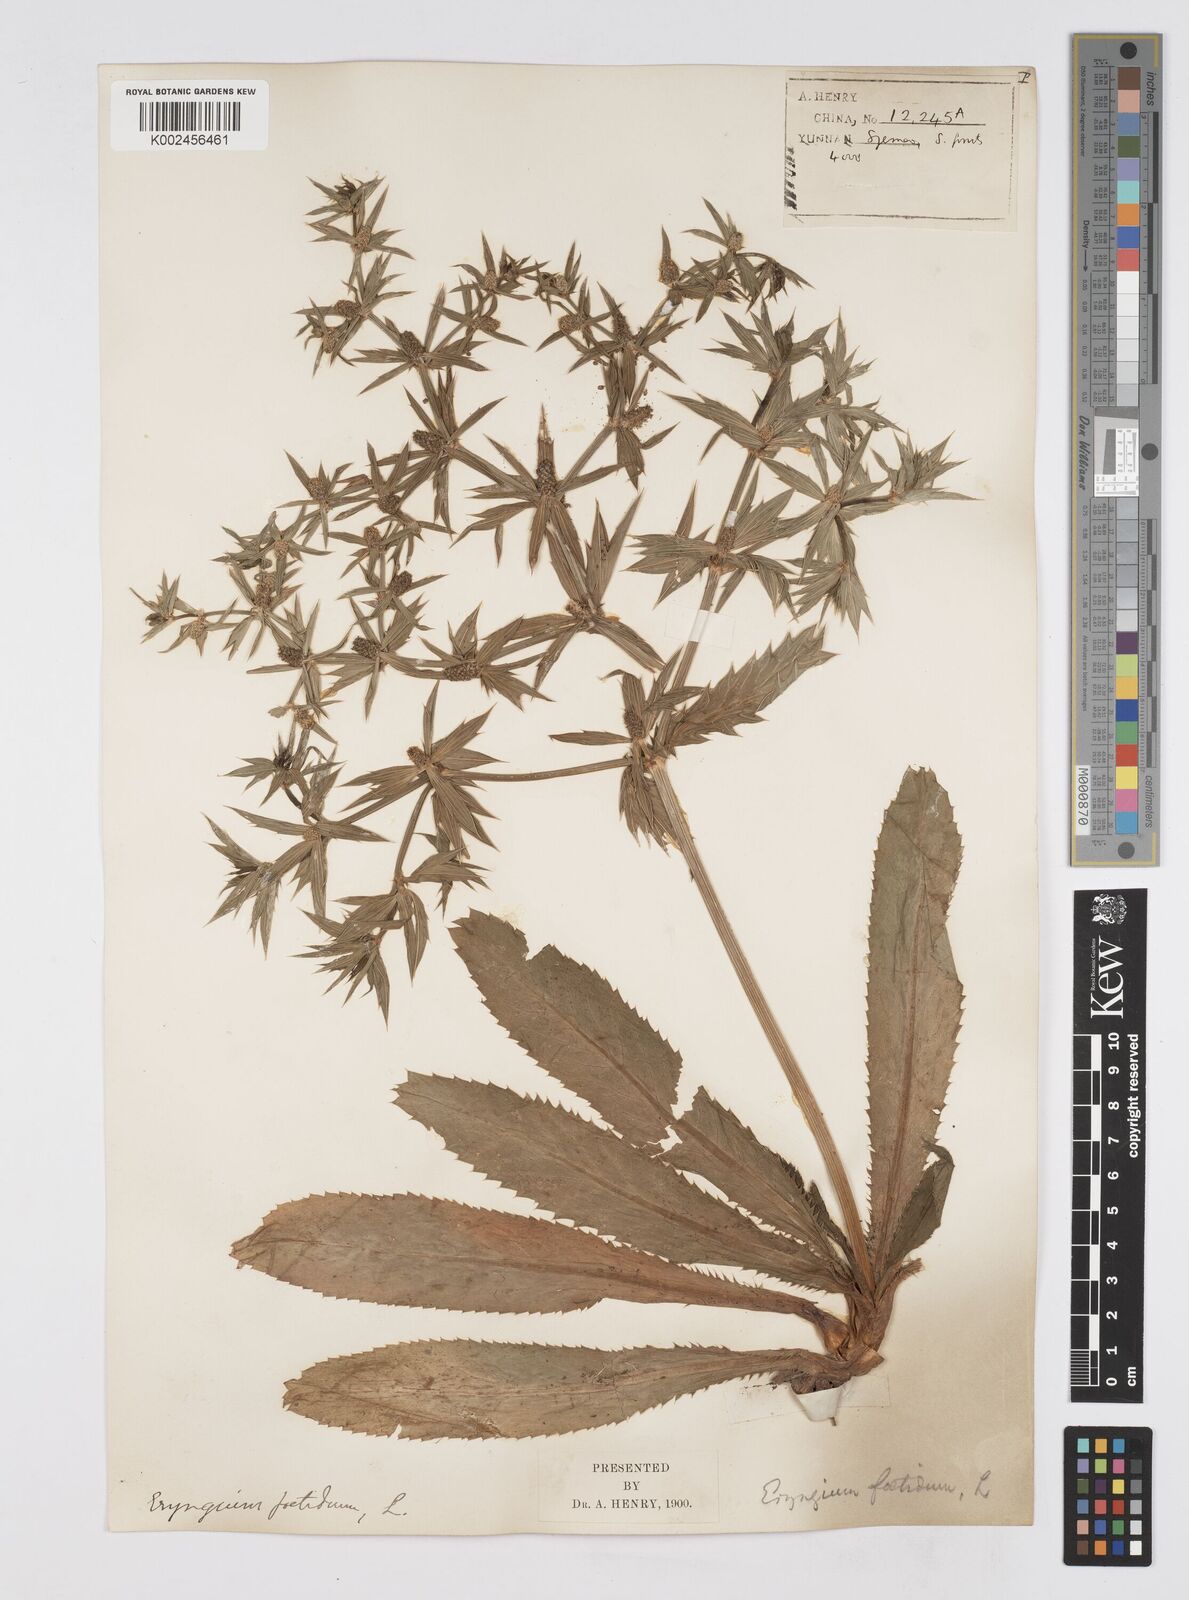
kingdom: Plantae
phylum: Tracheophyta
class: Magnoliopsida
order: Apiales
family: Apiaceae
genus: Eryngium
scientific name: Eryngium foetidum
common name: Fitweed
